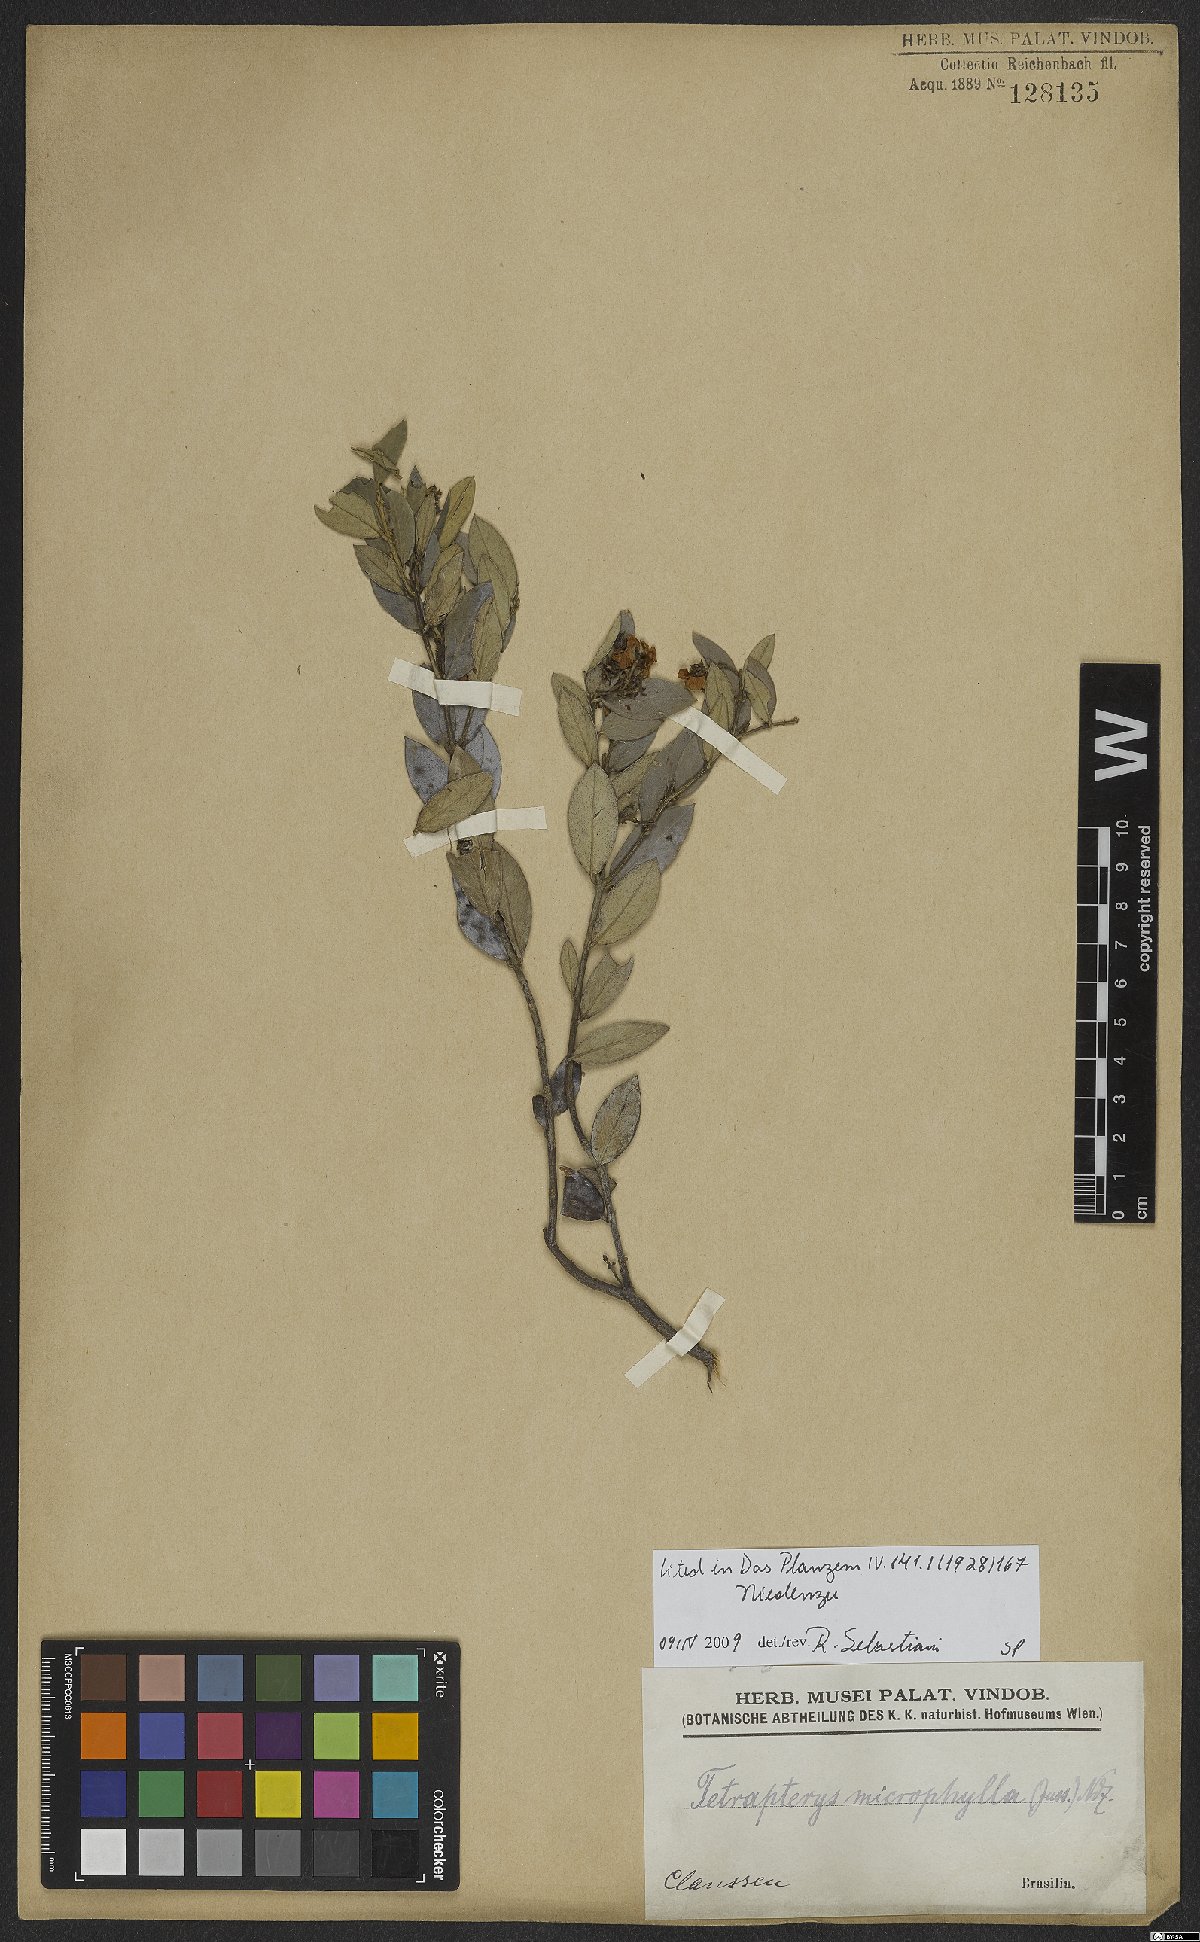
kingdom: Plantae
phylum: Tracheophyta
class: Magnoliopsida
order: Malpighiales
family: Malpighiaceae
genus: Glicophyllum
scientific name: Glicophyllum microphyllum
